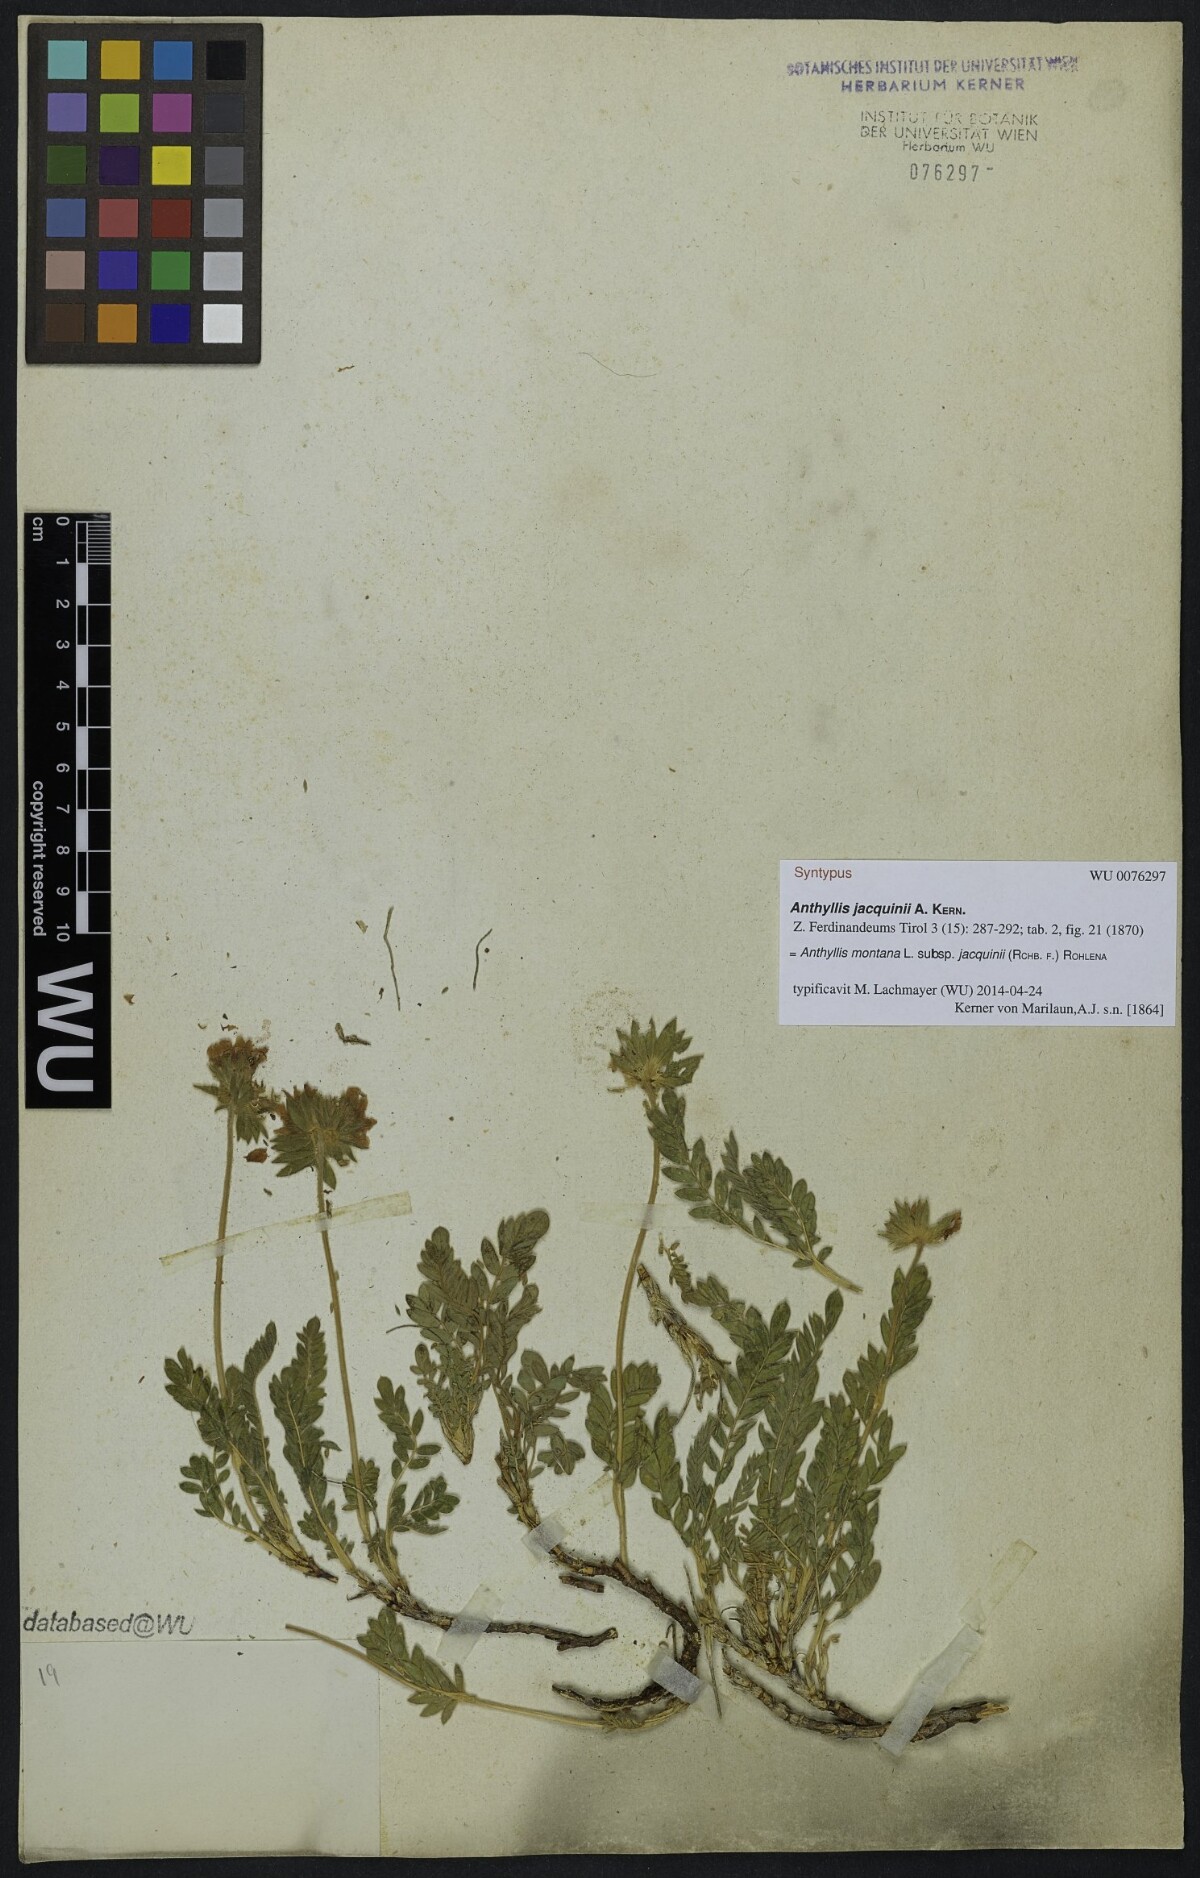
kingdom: Plantae
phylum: Tracheophyta
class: Magnoliopsida
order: Fabales
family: Fabaceae
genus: Anthyllis
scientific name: Anthyllis montana
